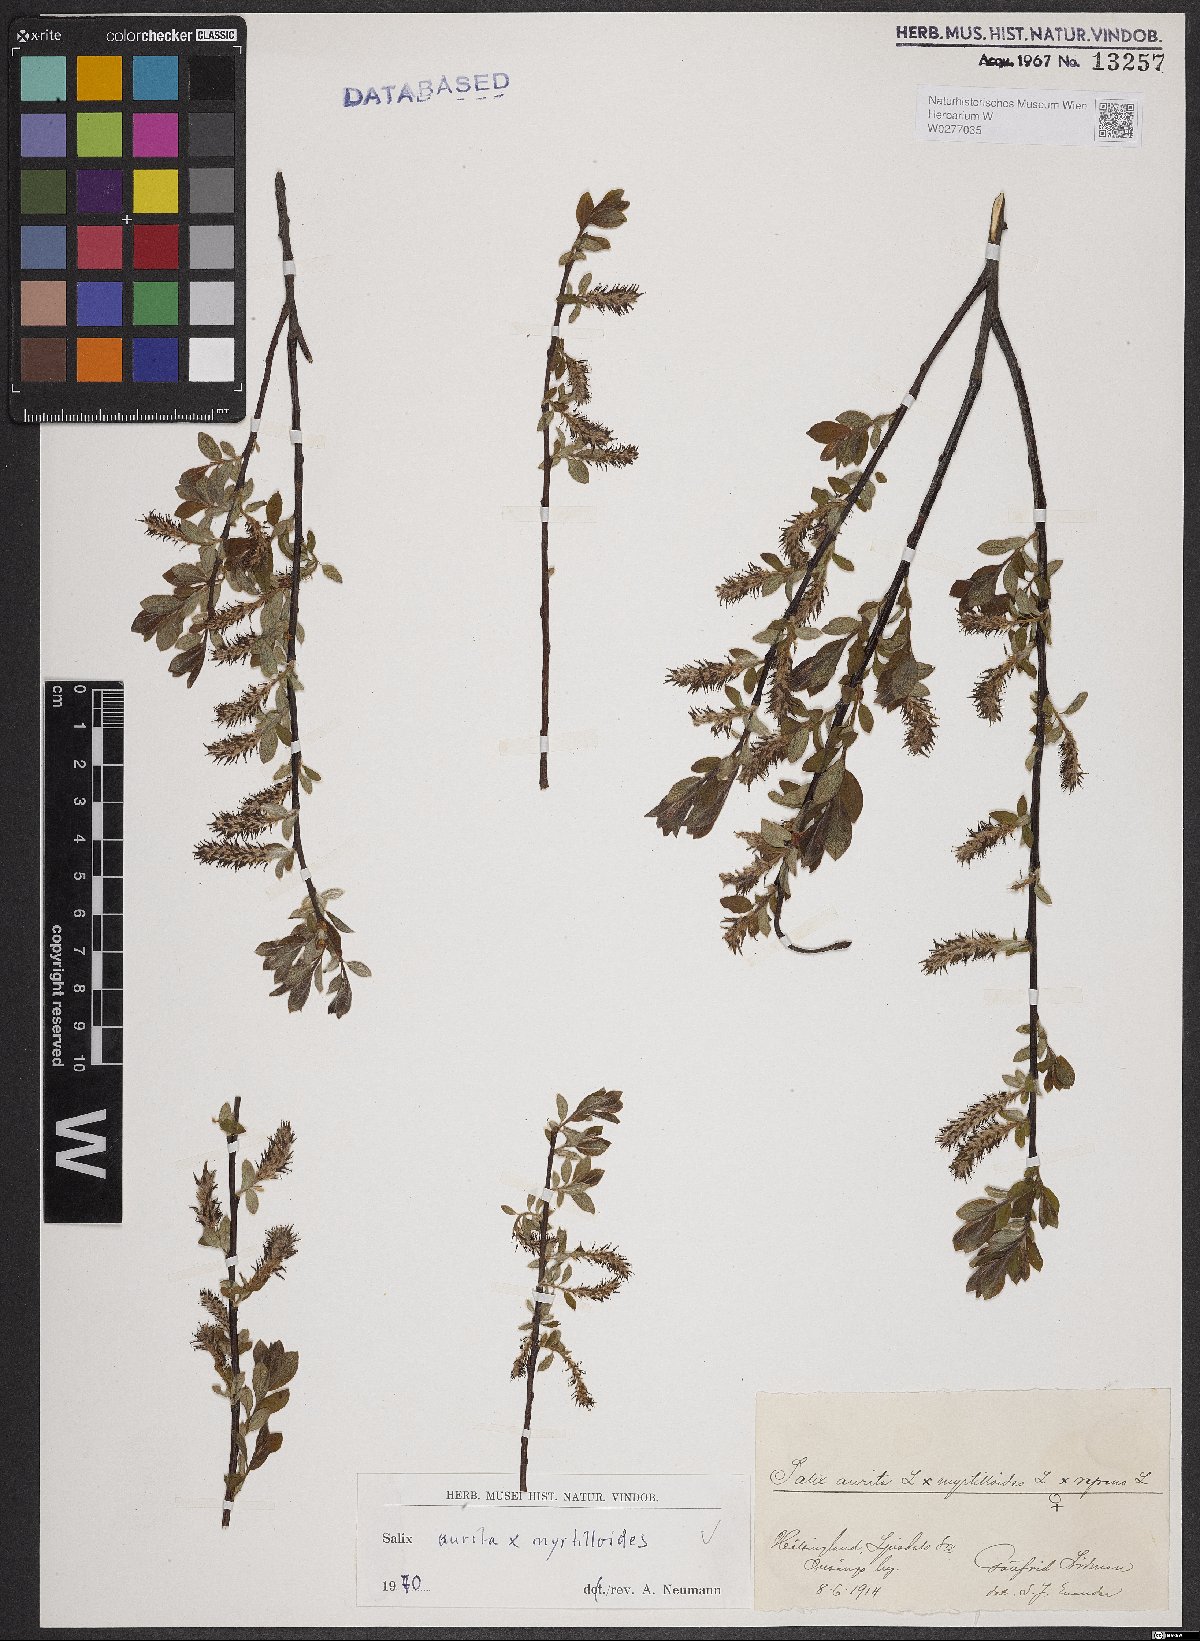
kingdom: Plantae
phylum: Tracheophyta
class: Magnoliopsida
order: Malpighiales
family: Salicaceae
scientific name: Salicaceae
